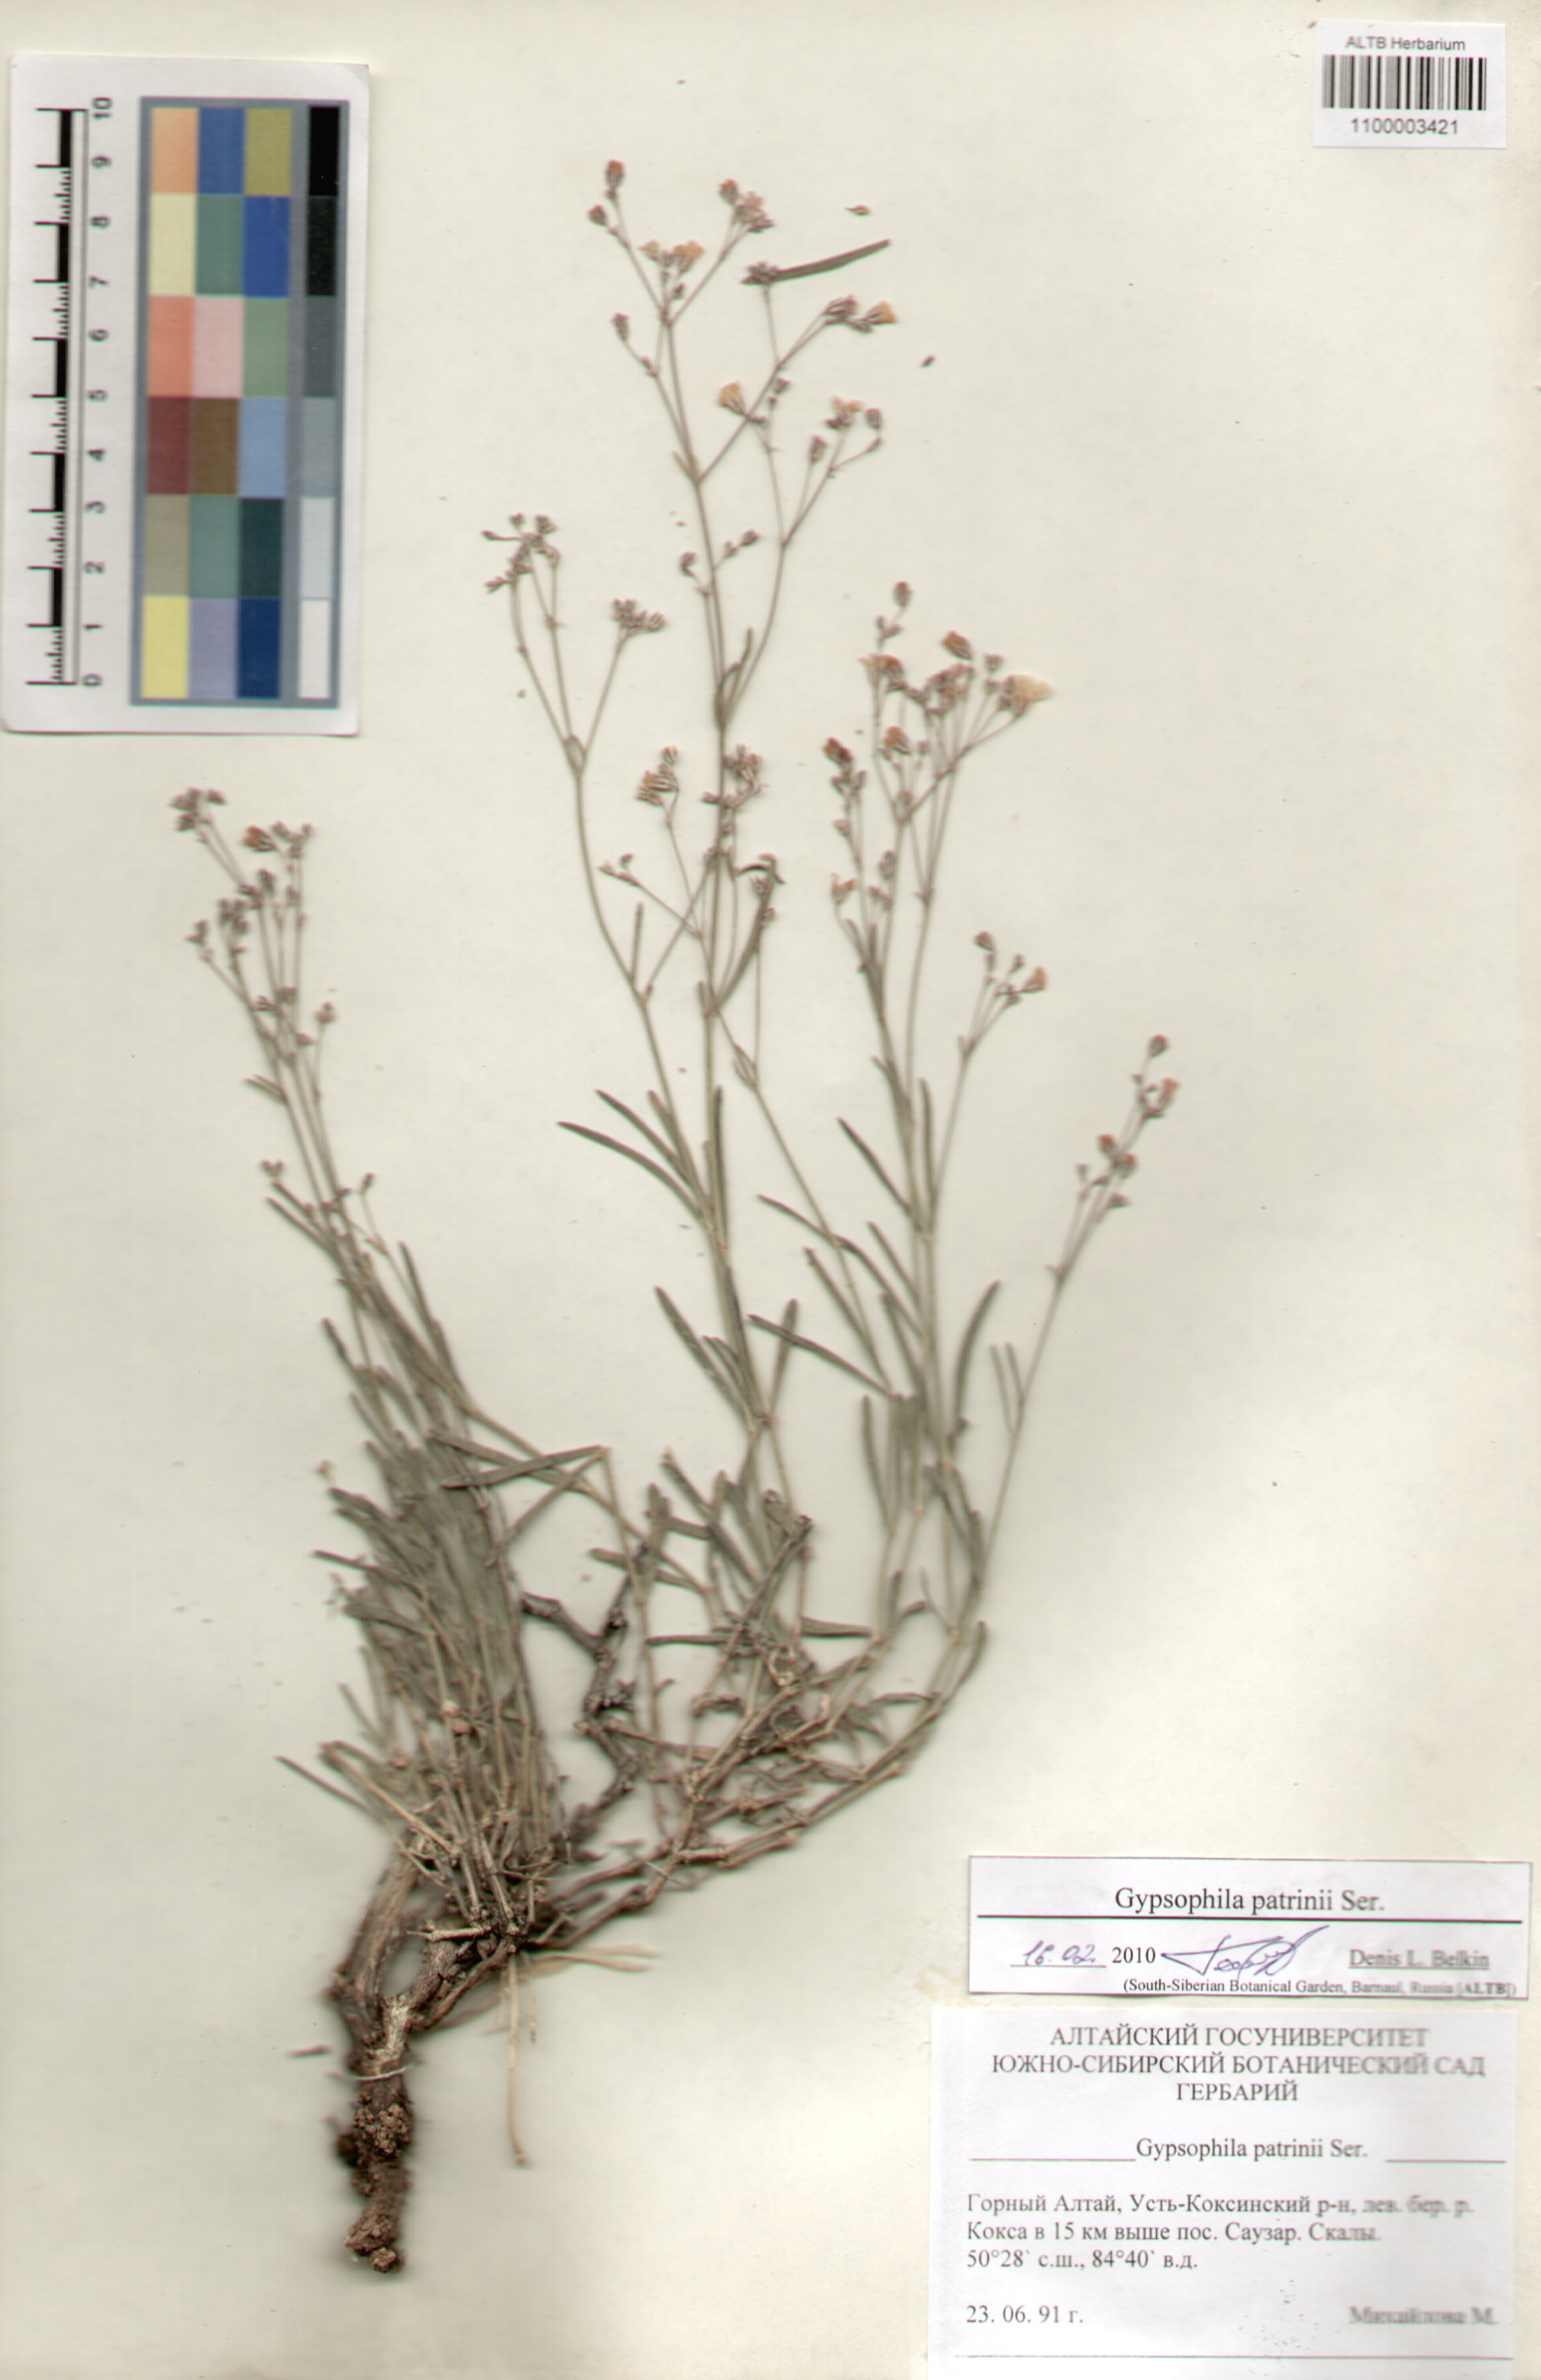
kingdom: Plantae
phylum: Tracheophyta
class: Magnoliopsida
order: Caryophyllales
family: Caryophyllaceae
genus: Gypsophila
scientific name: Gypsophila patrinii
